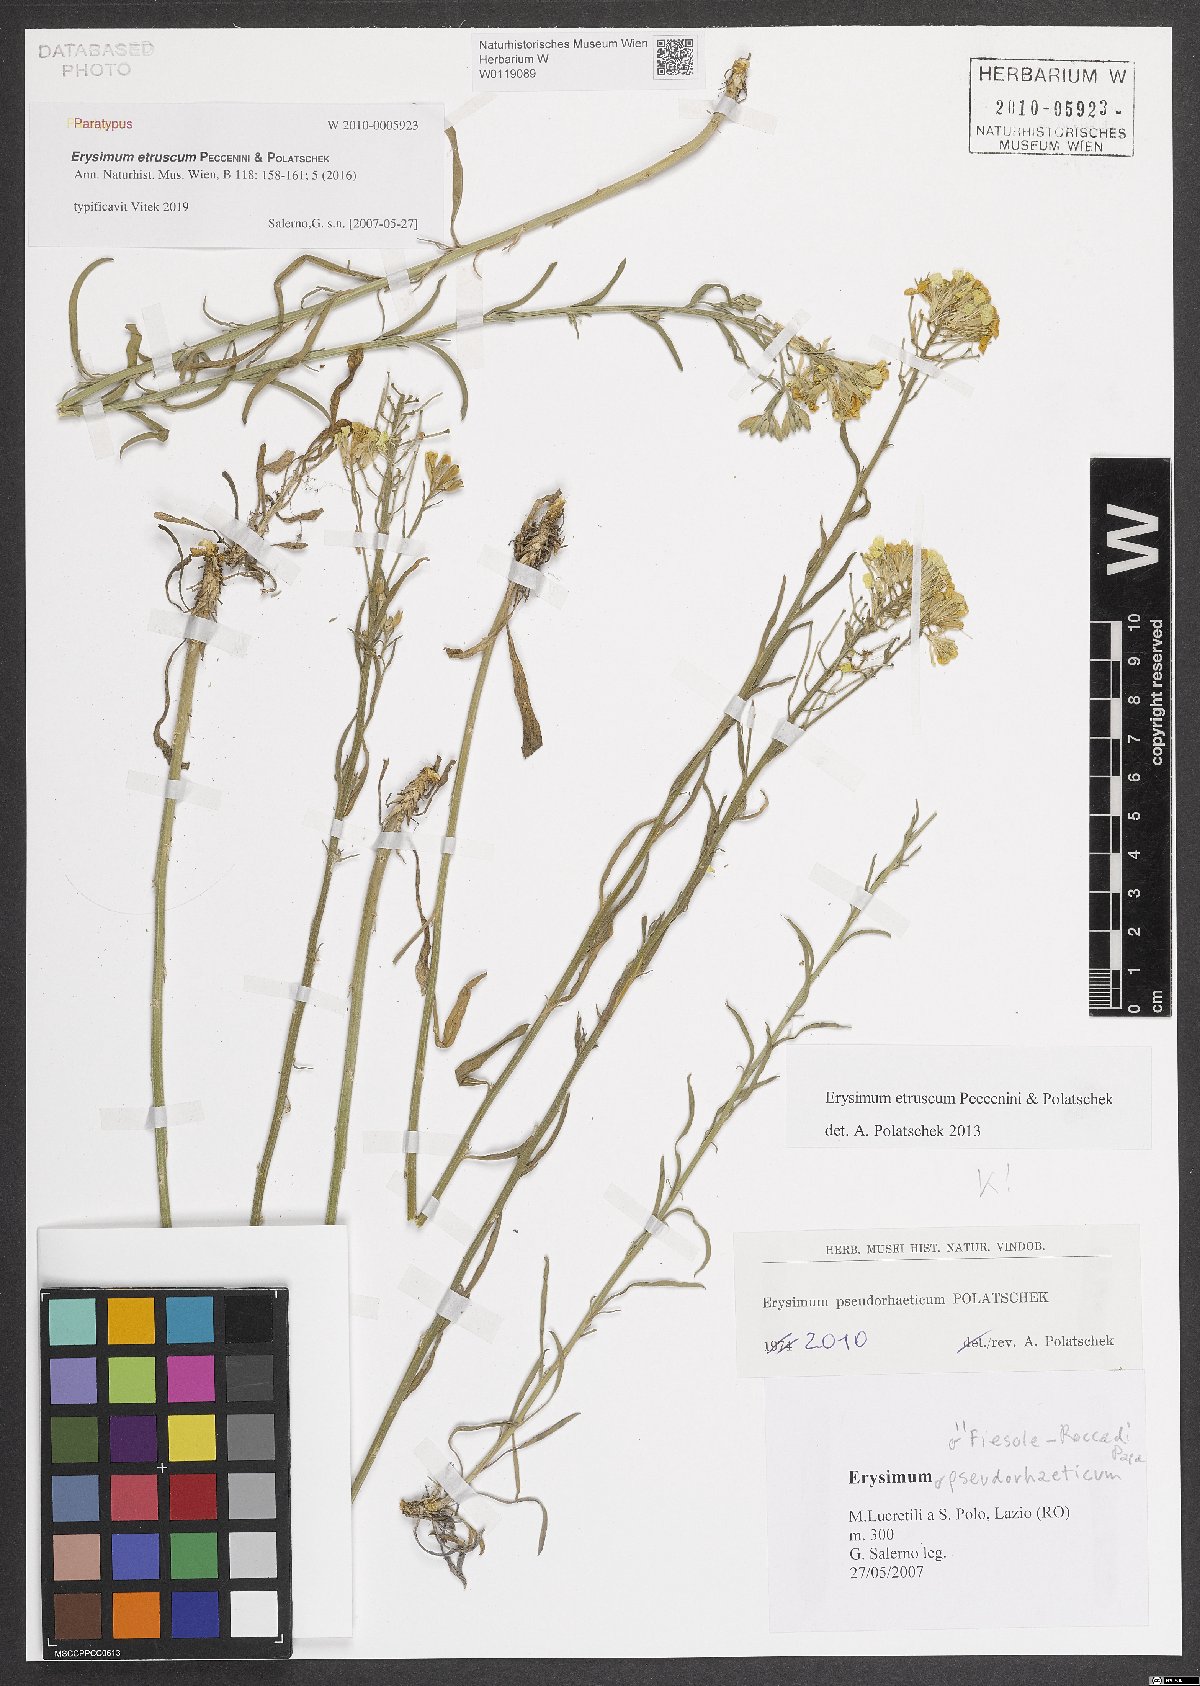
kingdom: Plantae
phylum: Tracheophyta
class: Magnoliopsida
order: Brassicales
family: Brassicaceae
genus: Erysimum
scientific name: Erysimum pseudorhaeticum
